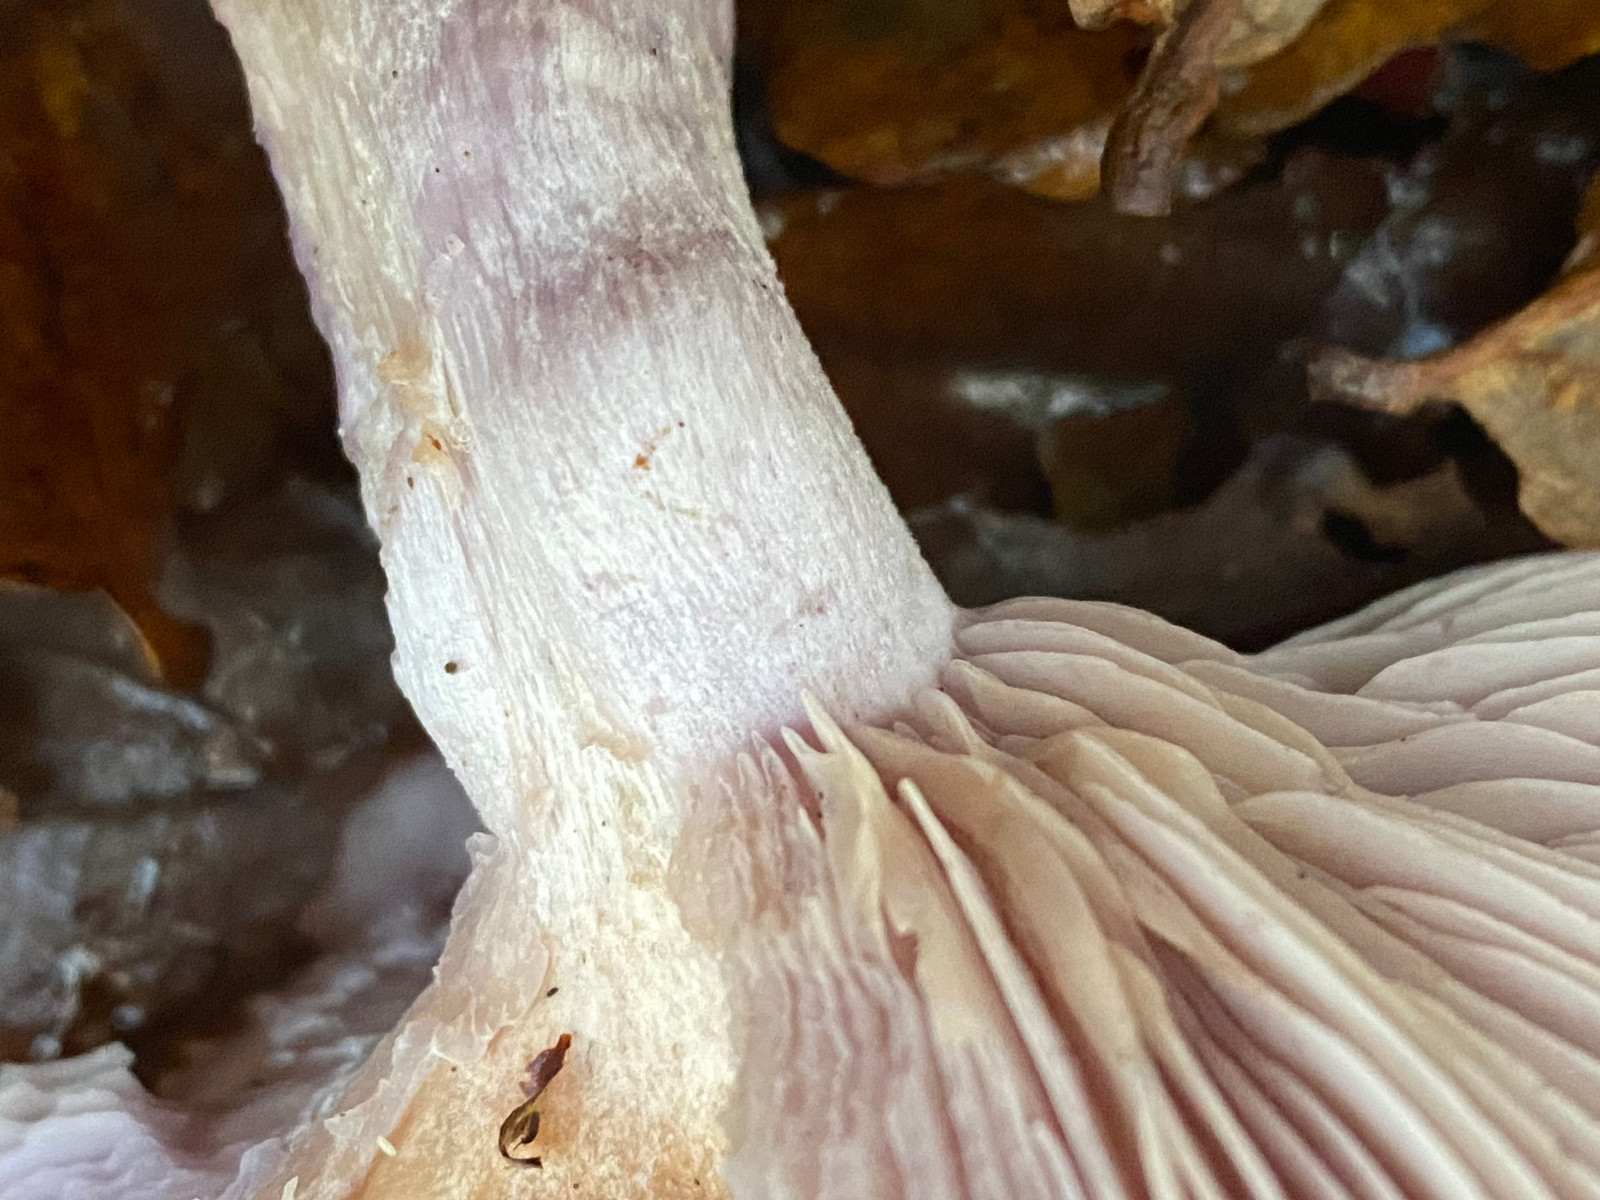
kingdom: Fungi
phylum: Basidiomycota
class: Agaricomycetes
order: Agaricales
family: Tricholomataceae
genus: Lepista
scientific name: Lepista nuda
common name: violet hekseringshat
